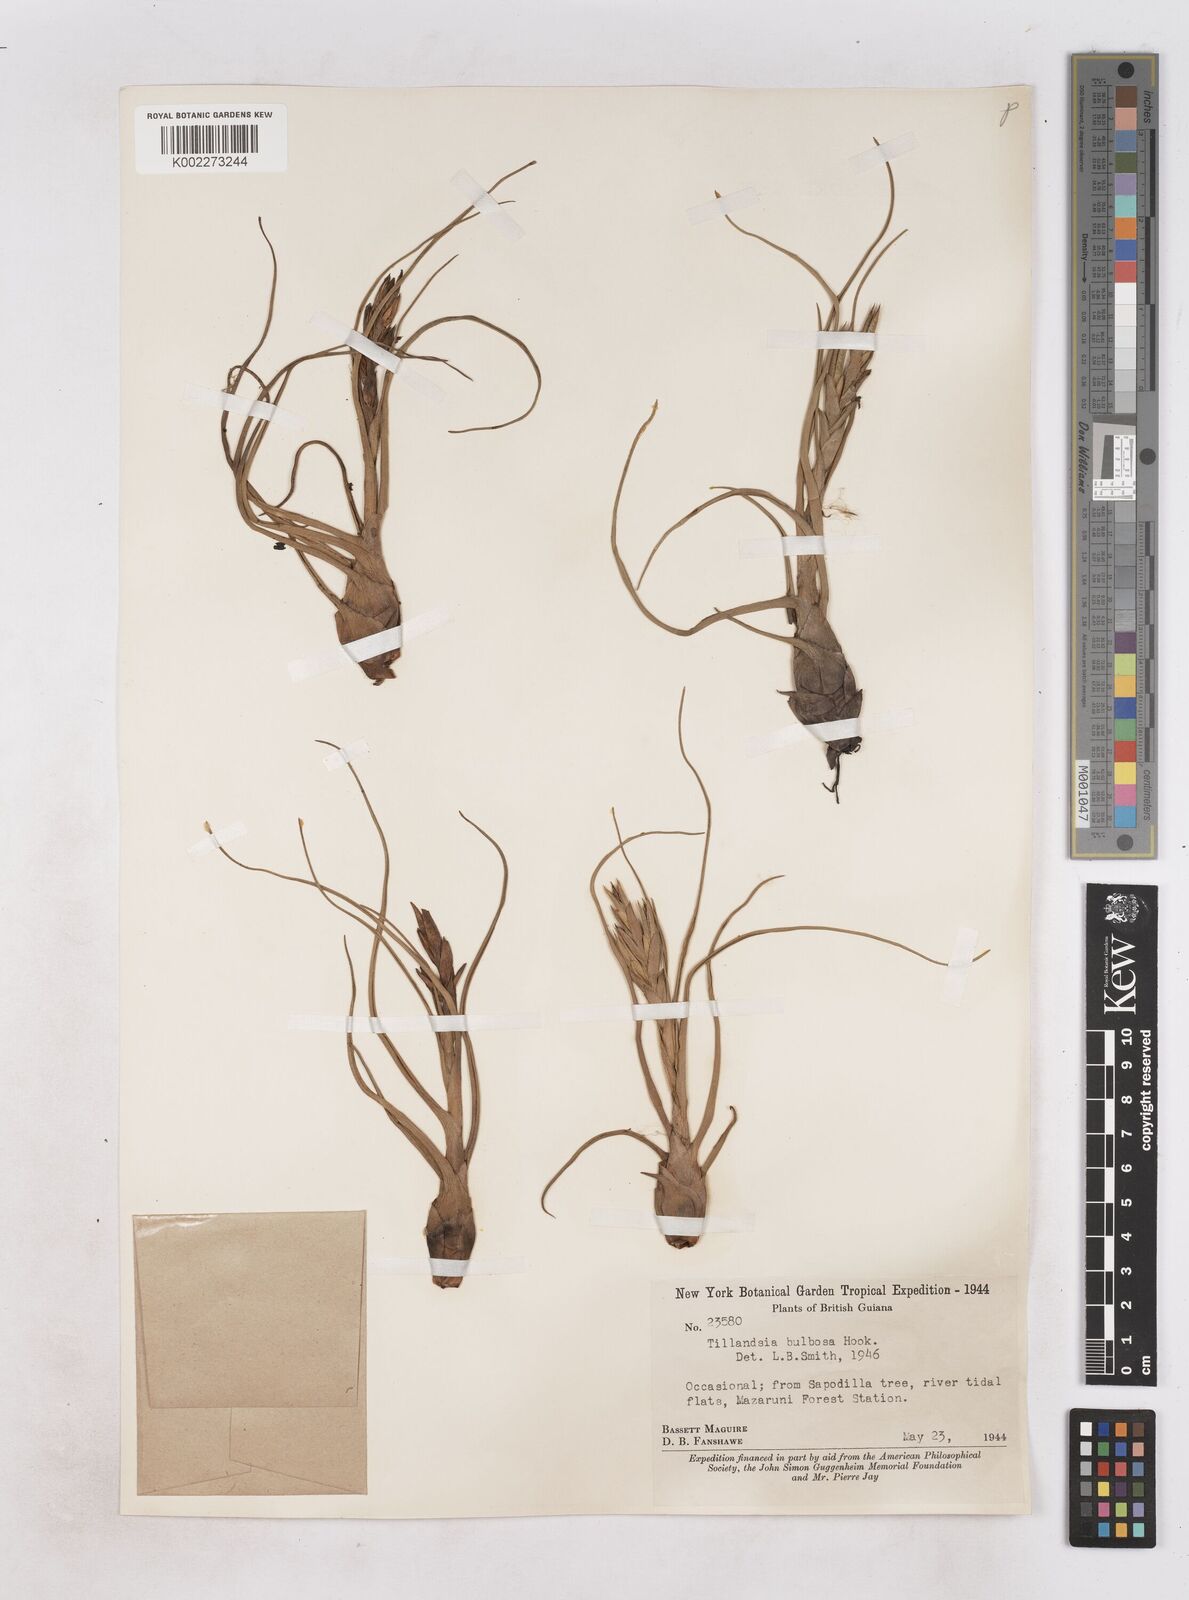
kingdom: Plantae
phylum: Tracheophyta
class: Liliopsida
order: Poales
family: Bromeliaceae
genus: Tillandsia
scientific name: Tillandsia bulbosa
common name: Bulbous airplant
